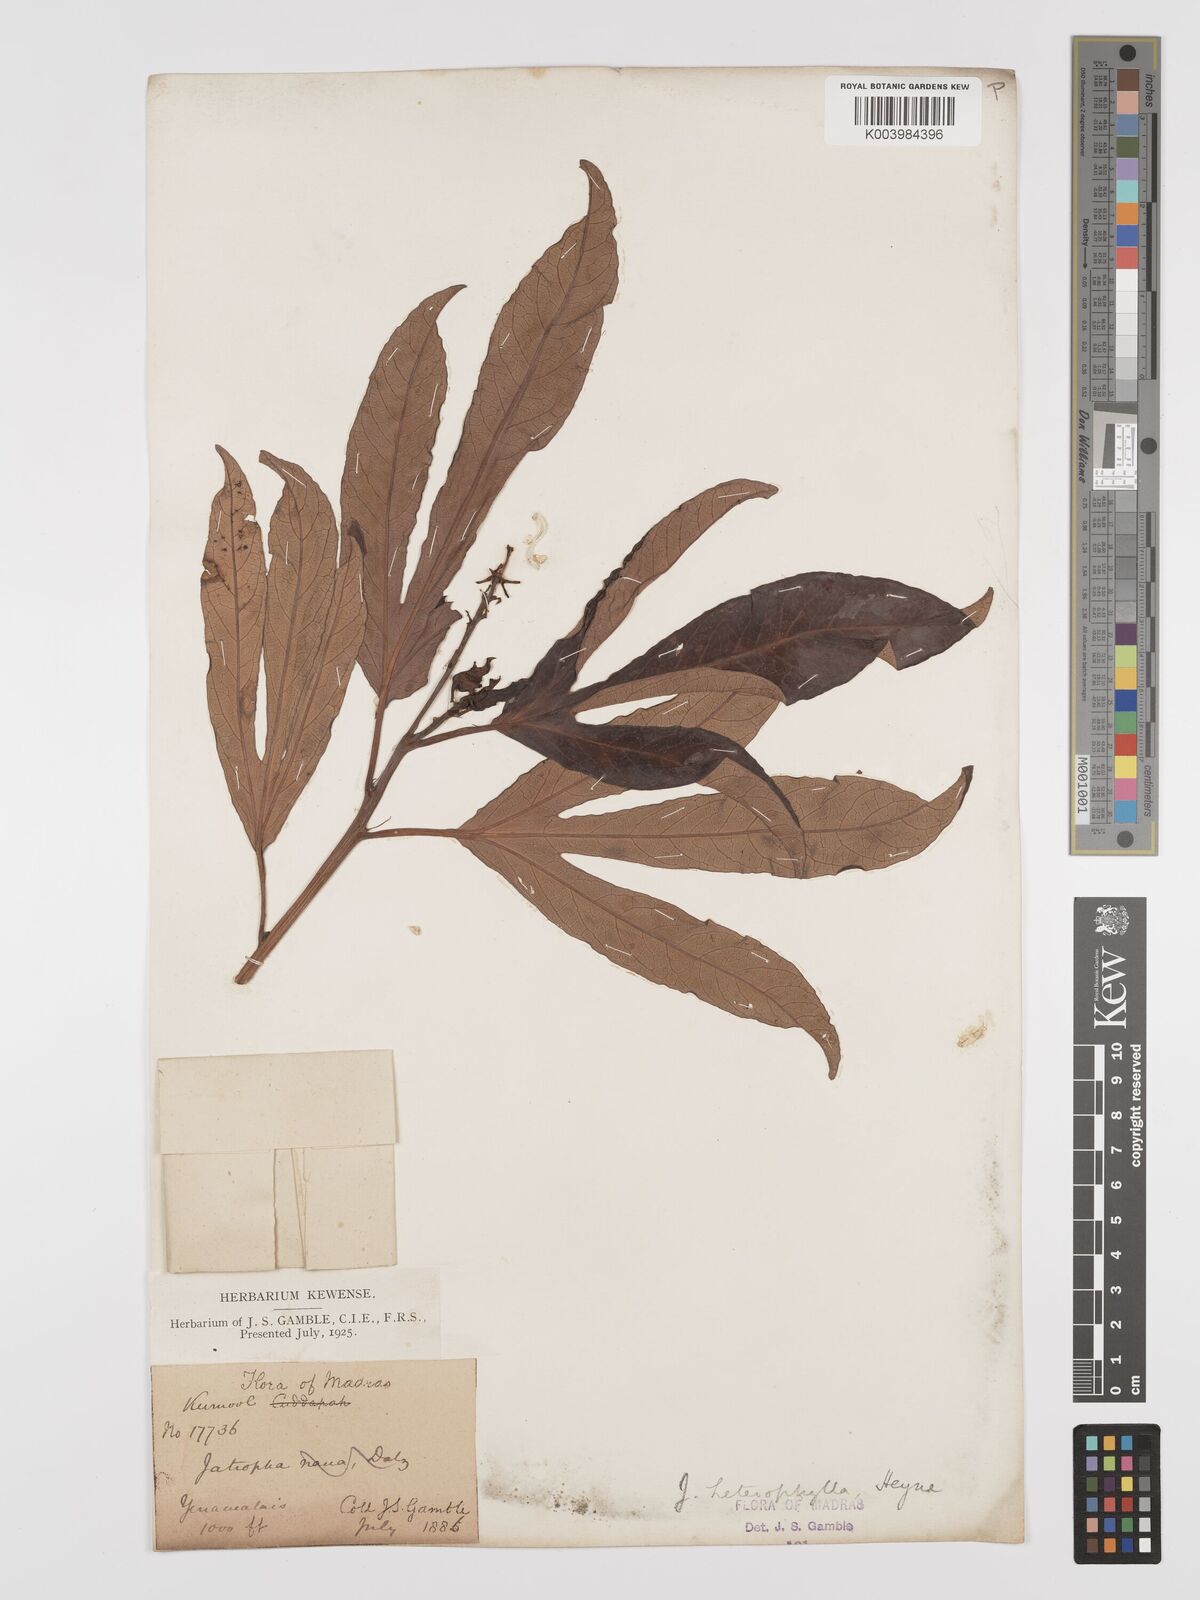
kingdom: Plantae
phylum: Tracheophyta
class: Magnoliopsida
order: Malpighiales
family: Euphorbiaceae
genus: Jatropha
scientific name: Jatropha
